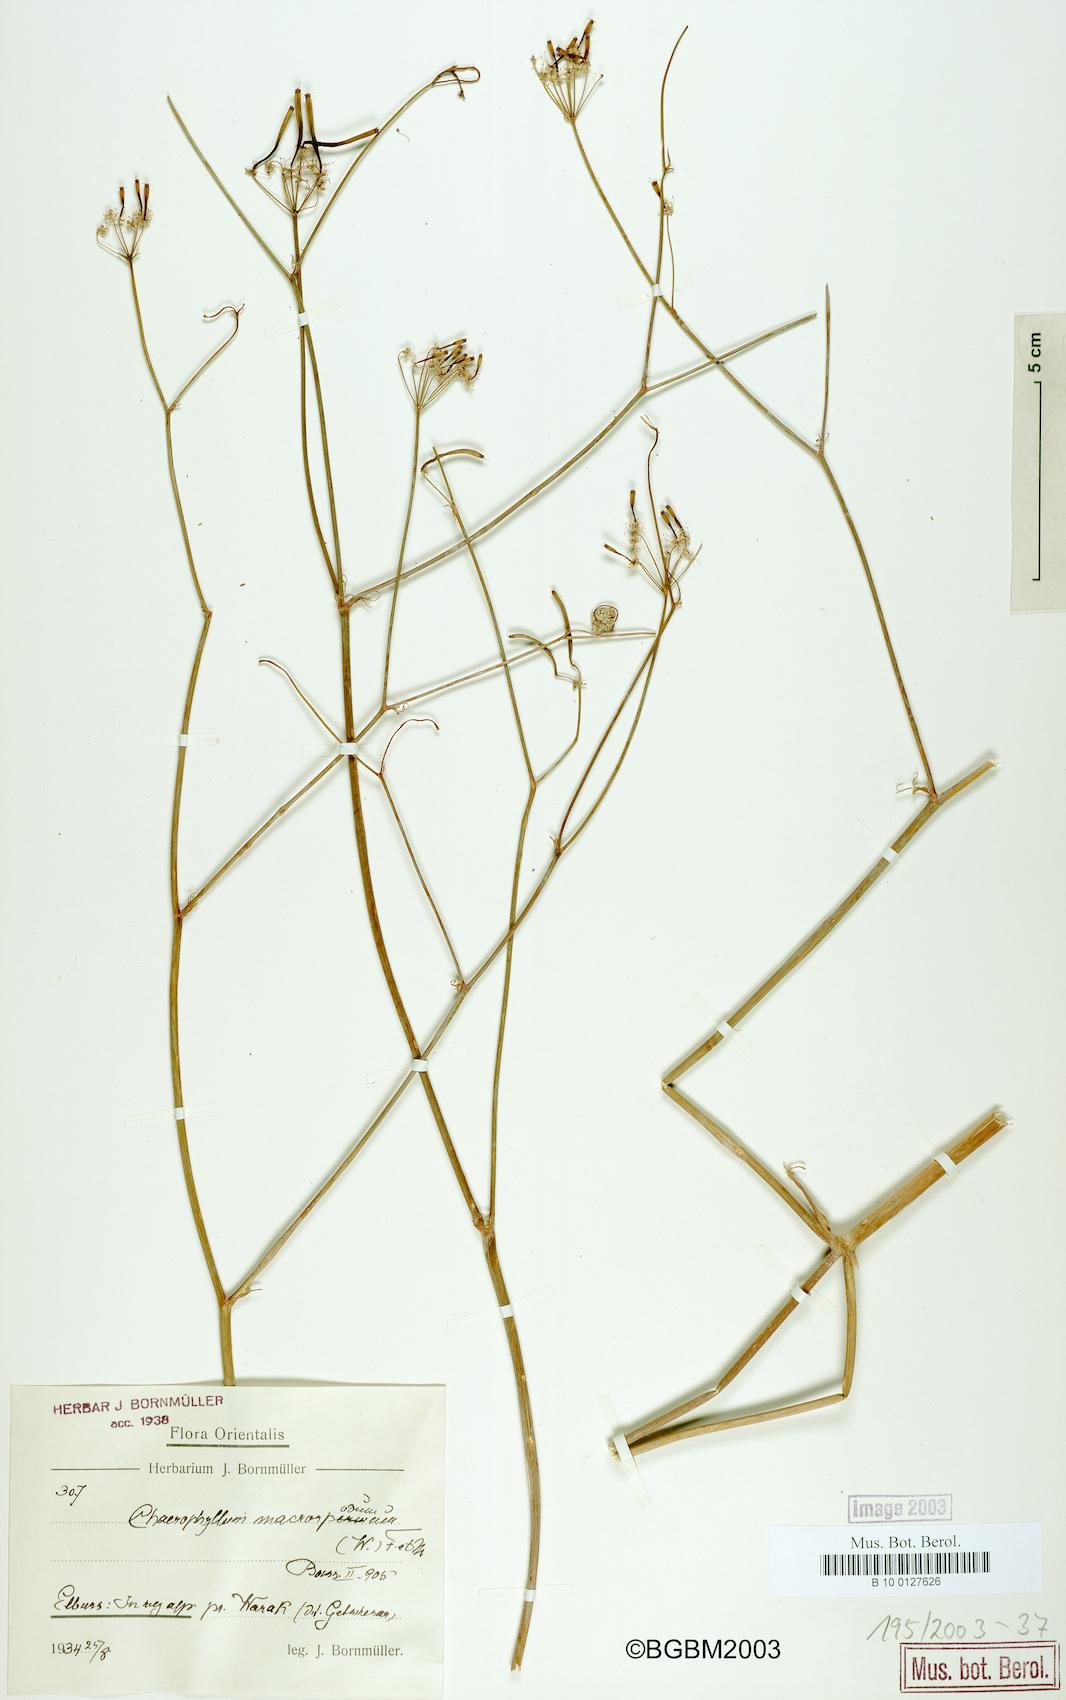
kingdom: Plantae
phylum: Tracheophyta
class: Magnoliopsida
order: Apiales
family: Apiaceae
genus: Chaerophyllum
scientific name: Chaerophyllum macropodum
